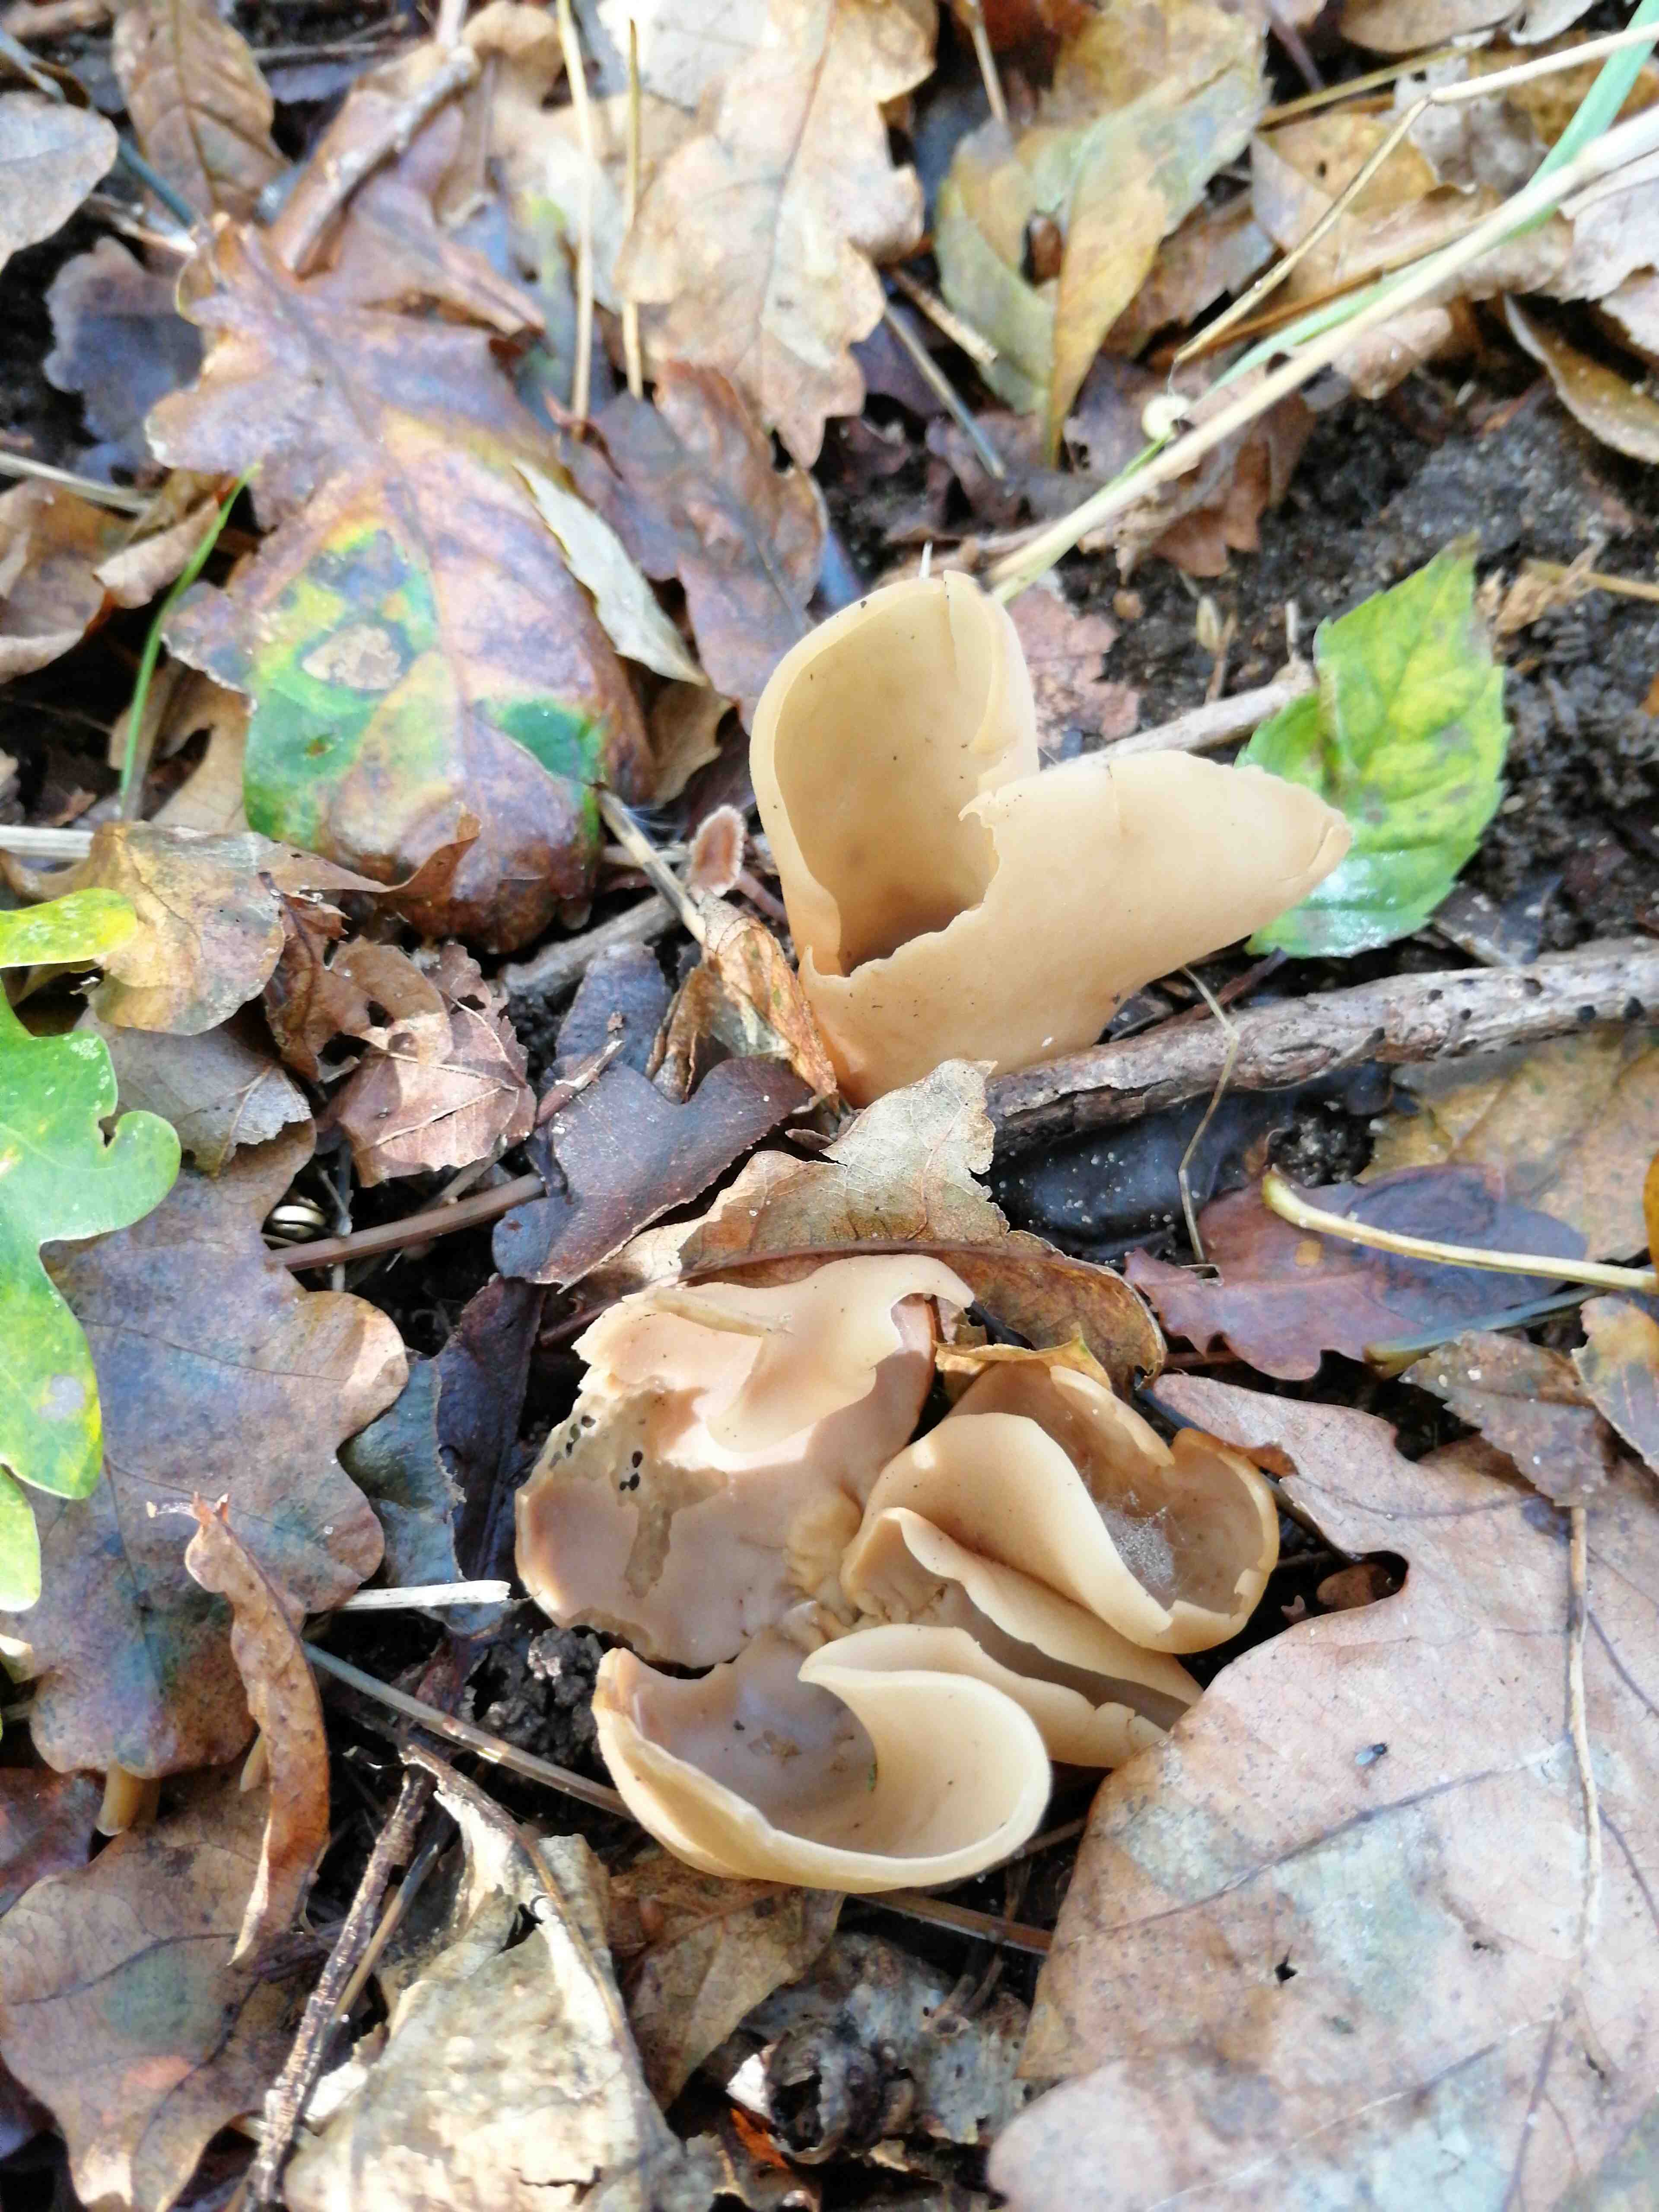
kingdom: Fungi
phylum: Ascomycota
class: Pezizomycetes
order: Pezizales
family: Otideaceae
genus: Otidea
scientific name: Otidea
